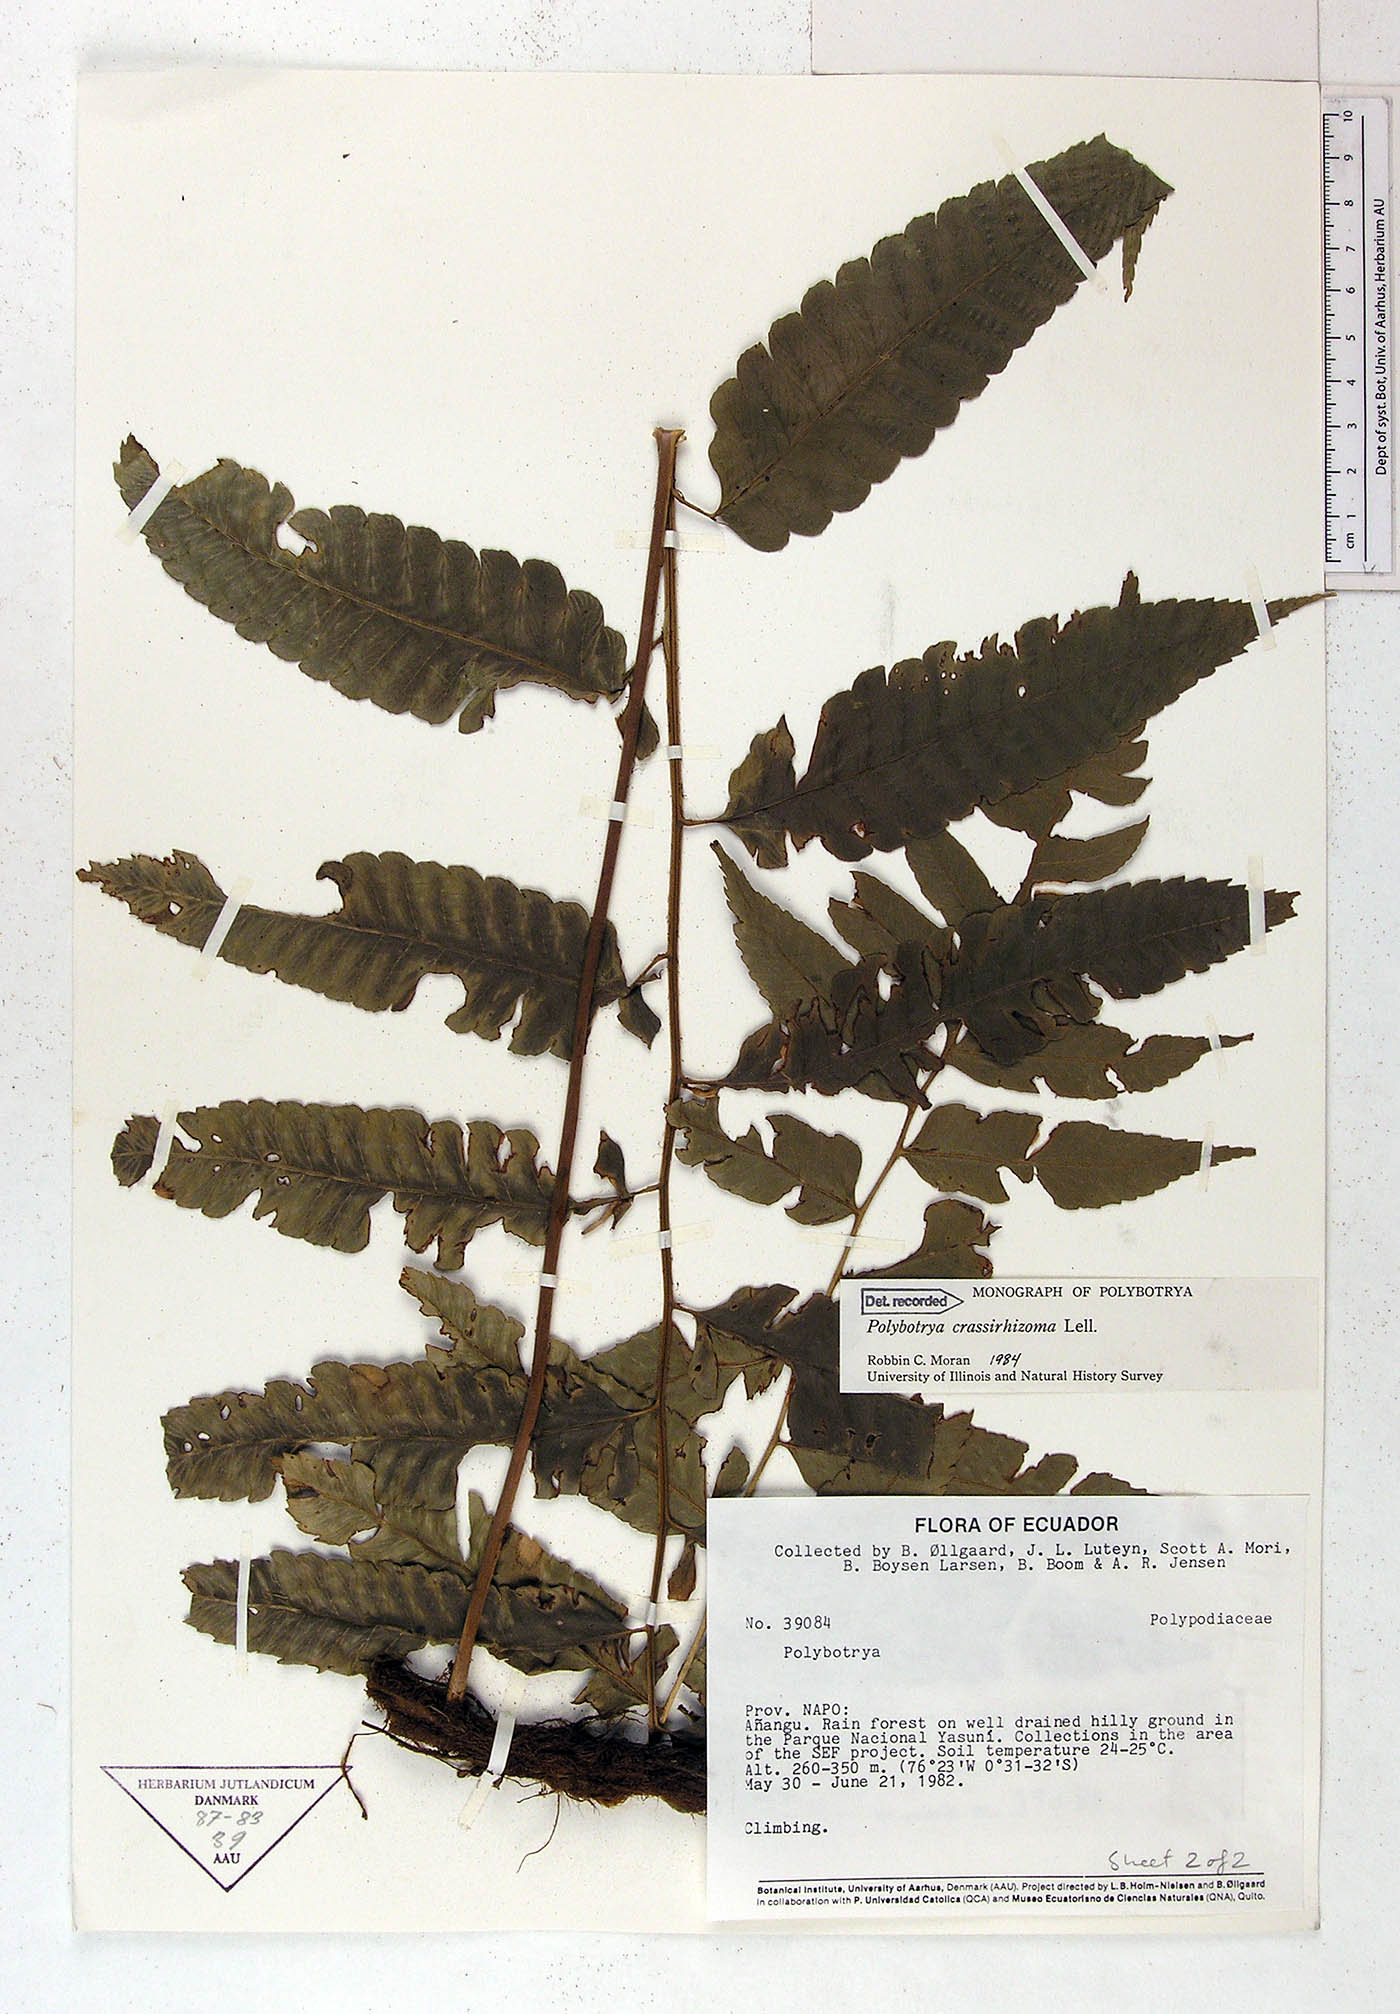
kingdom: Plantae
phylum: Tracheophyta
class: Polypodiopsida
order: Polypodiales
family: Dryopteridaceae
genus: Polybotrya
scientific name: Polybotrya crassirhizoma
